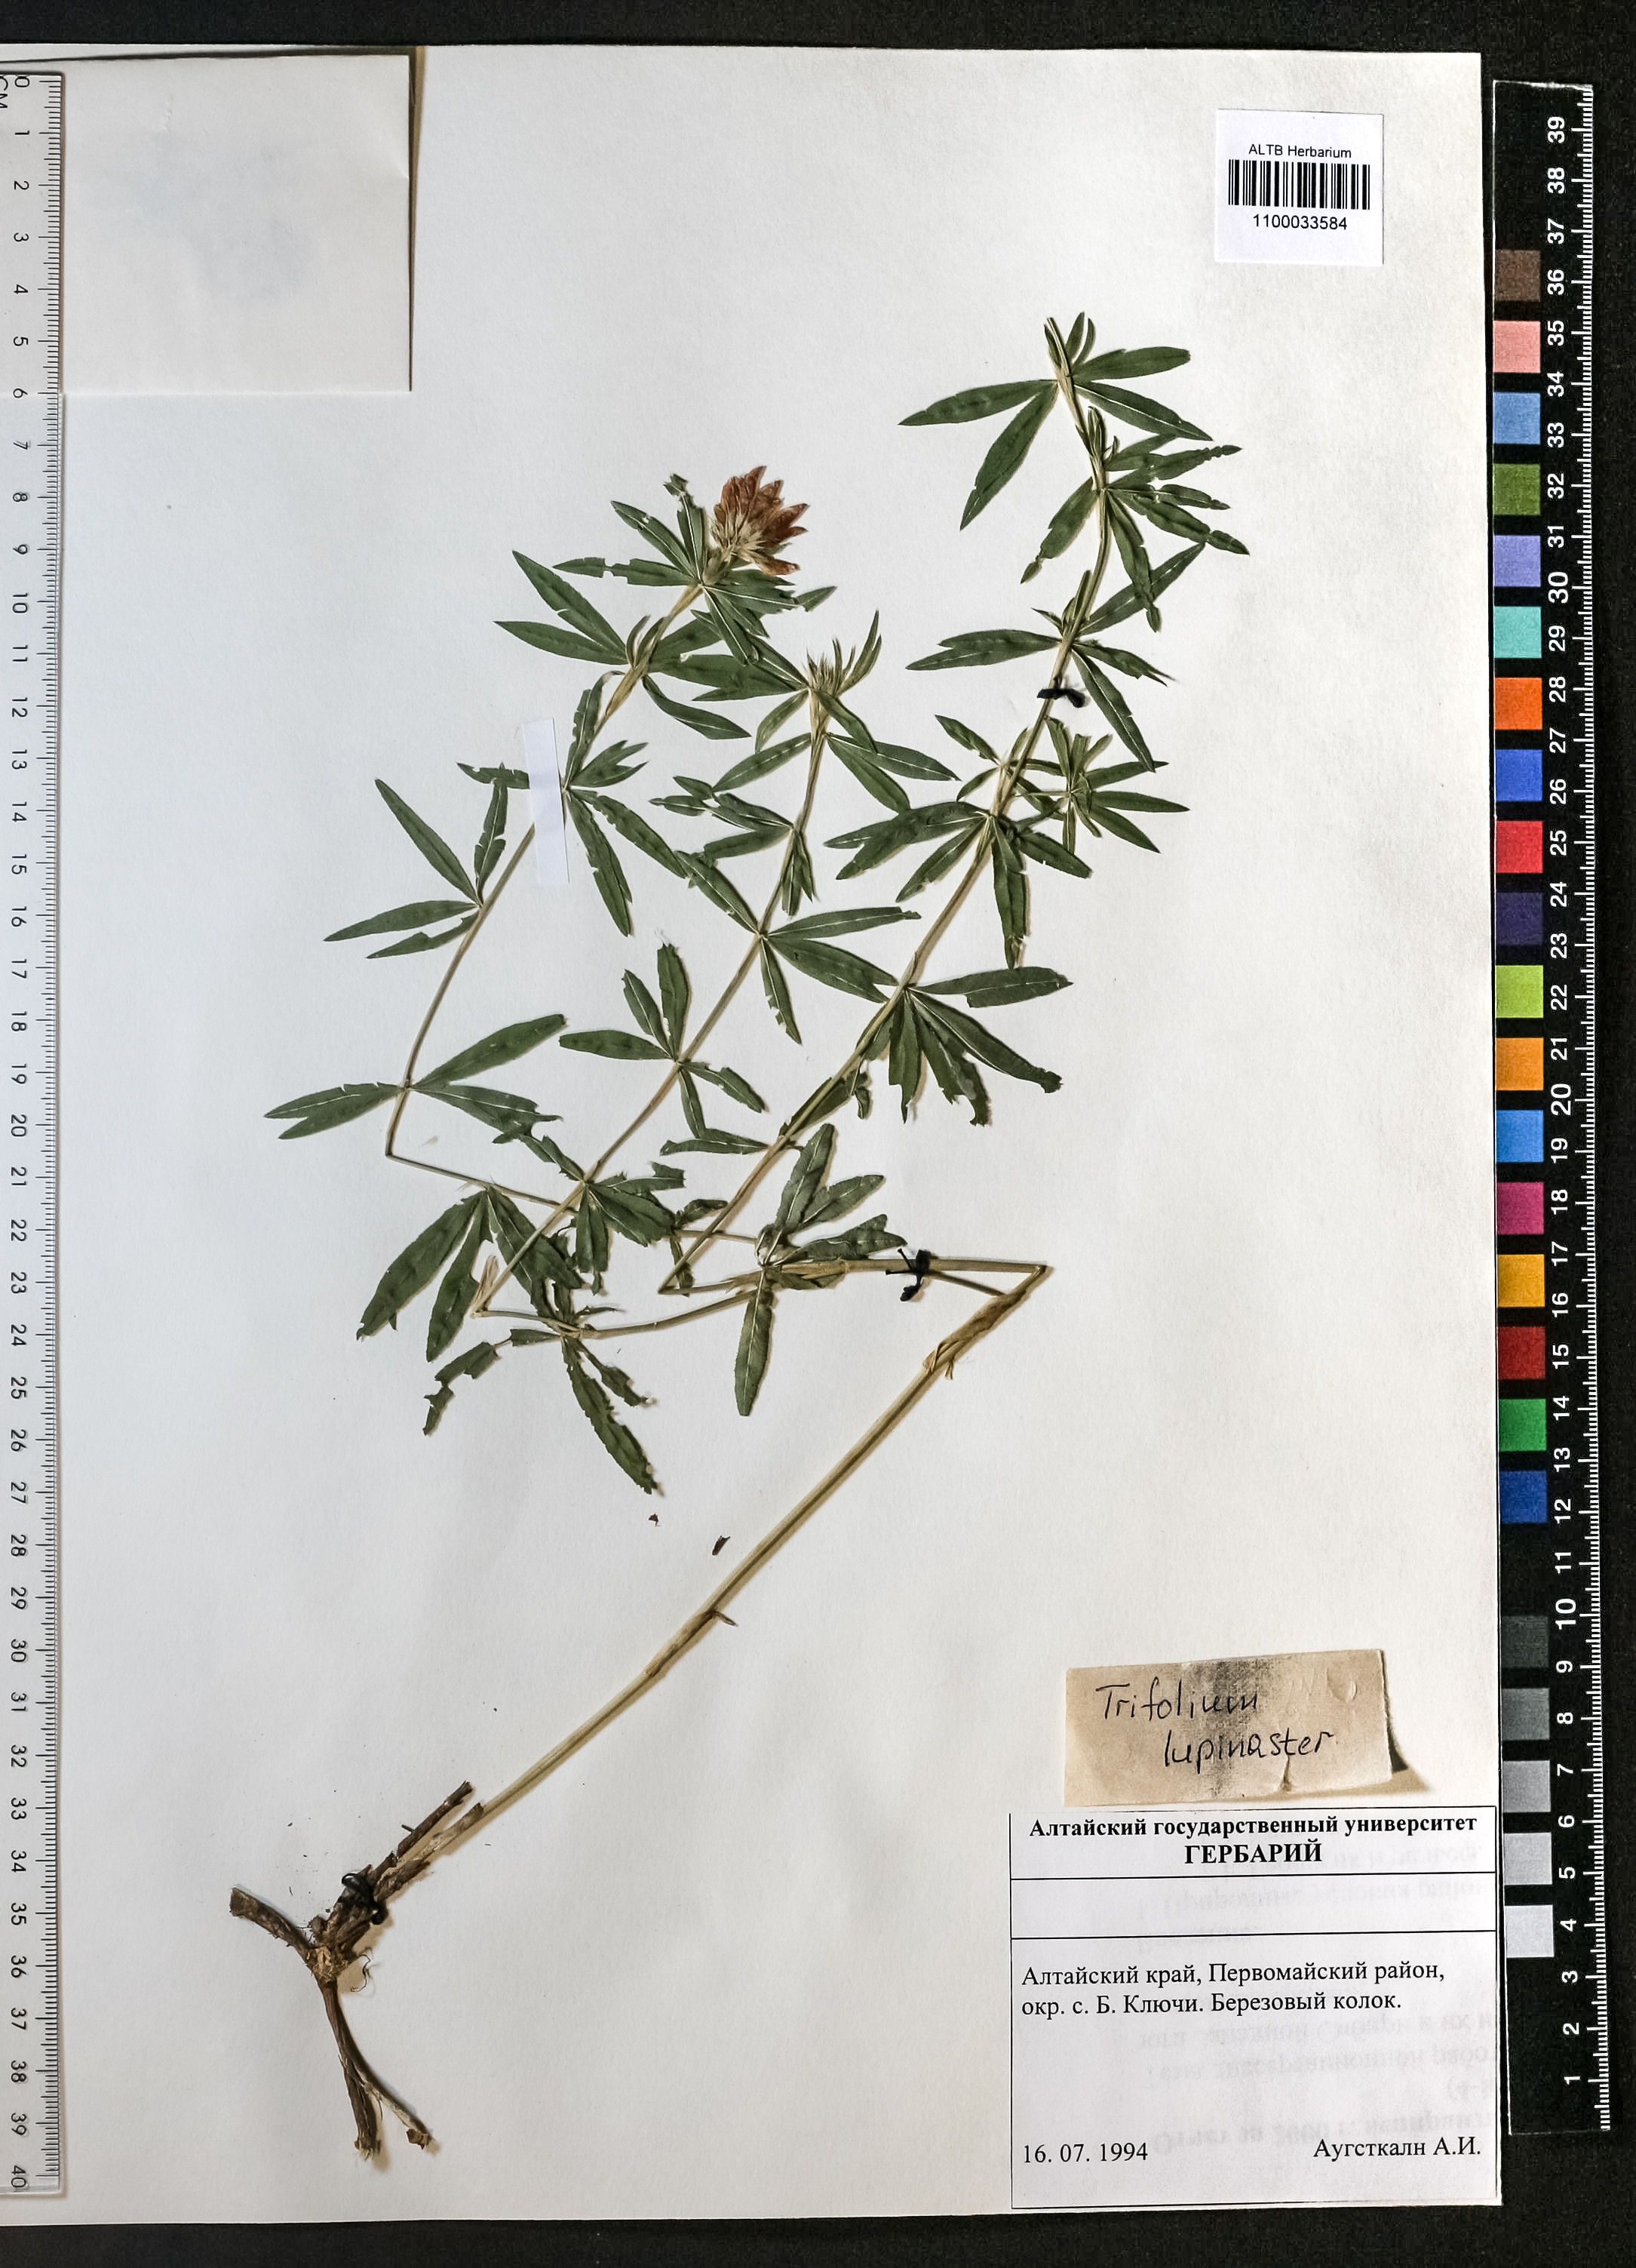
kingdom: Plantae
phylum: Tracheophyta
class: Magnoliopsida
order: Fabales
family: Fabaceae
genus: Trifolium
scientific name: Trifolium lupinaster
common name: Lupine clover
